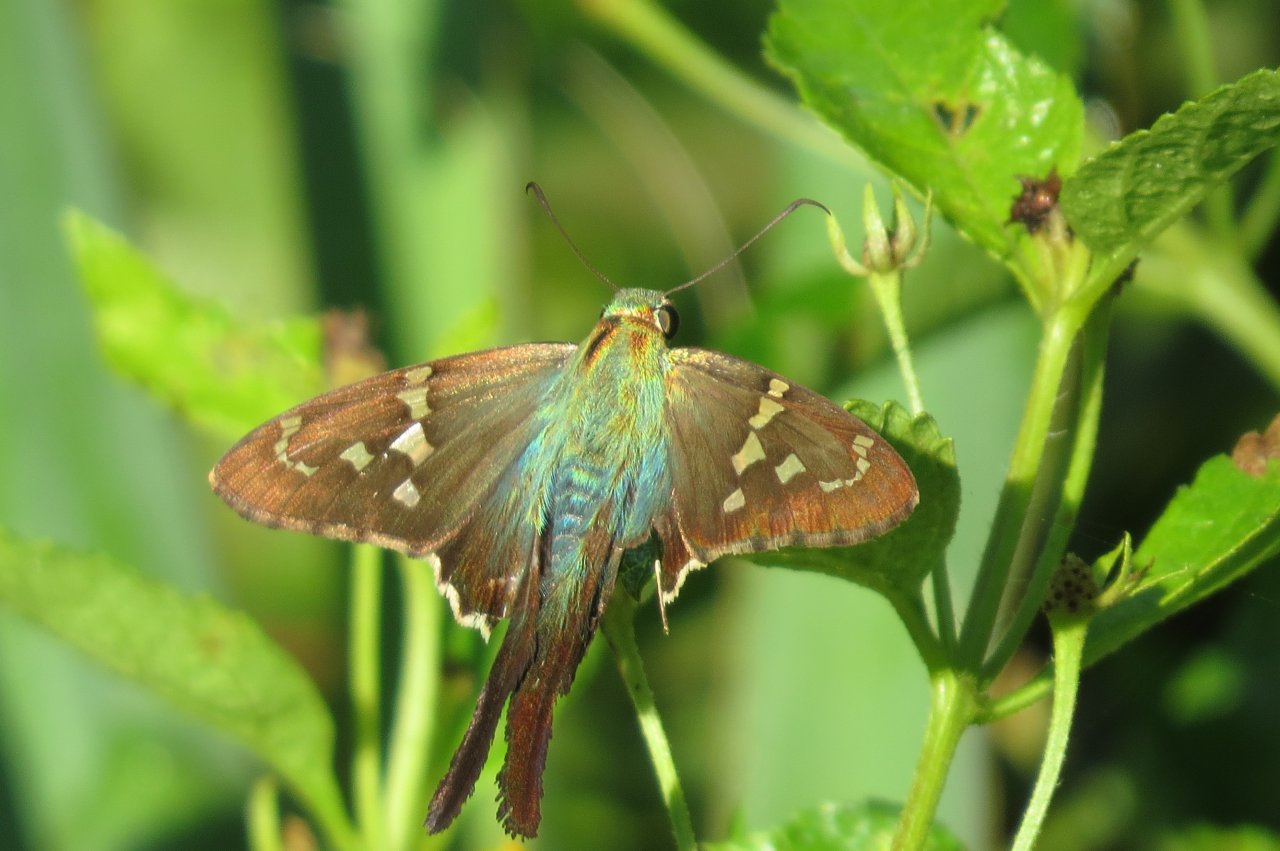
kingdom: Animalia
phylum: Arthropoda
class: Insecta
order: Lepidoptera
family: Hesperiidae
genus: Urbanus
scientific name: Urbanus proteus
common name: Long-tailed Skipper
